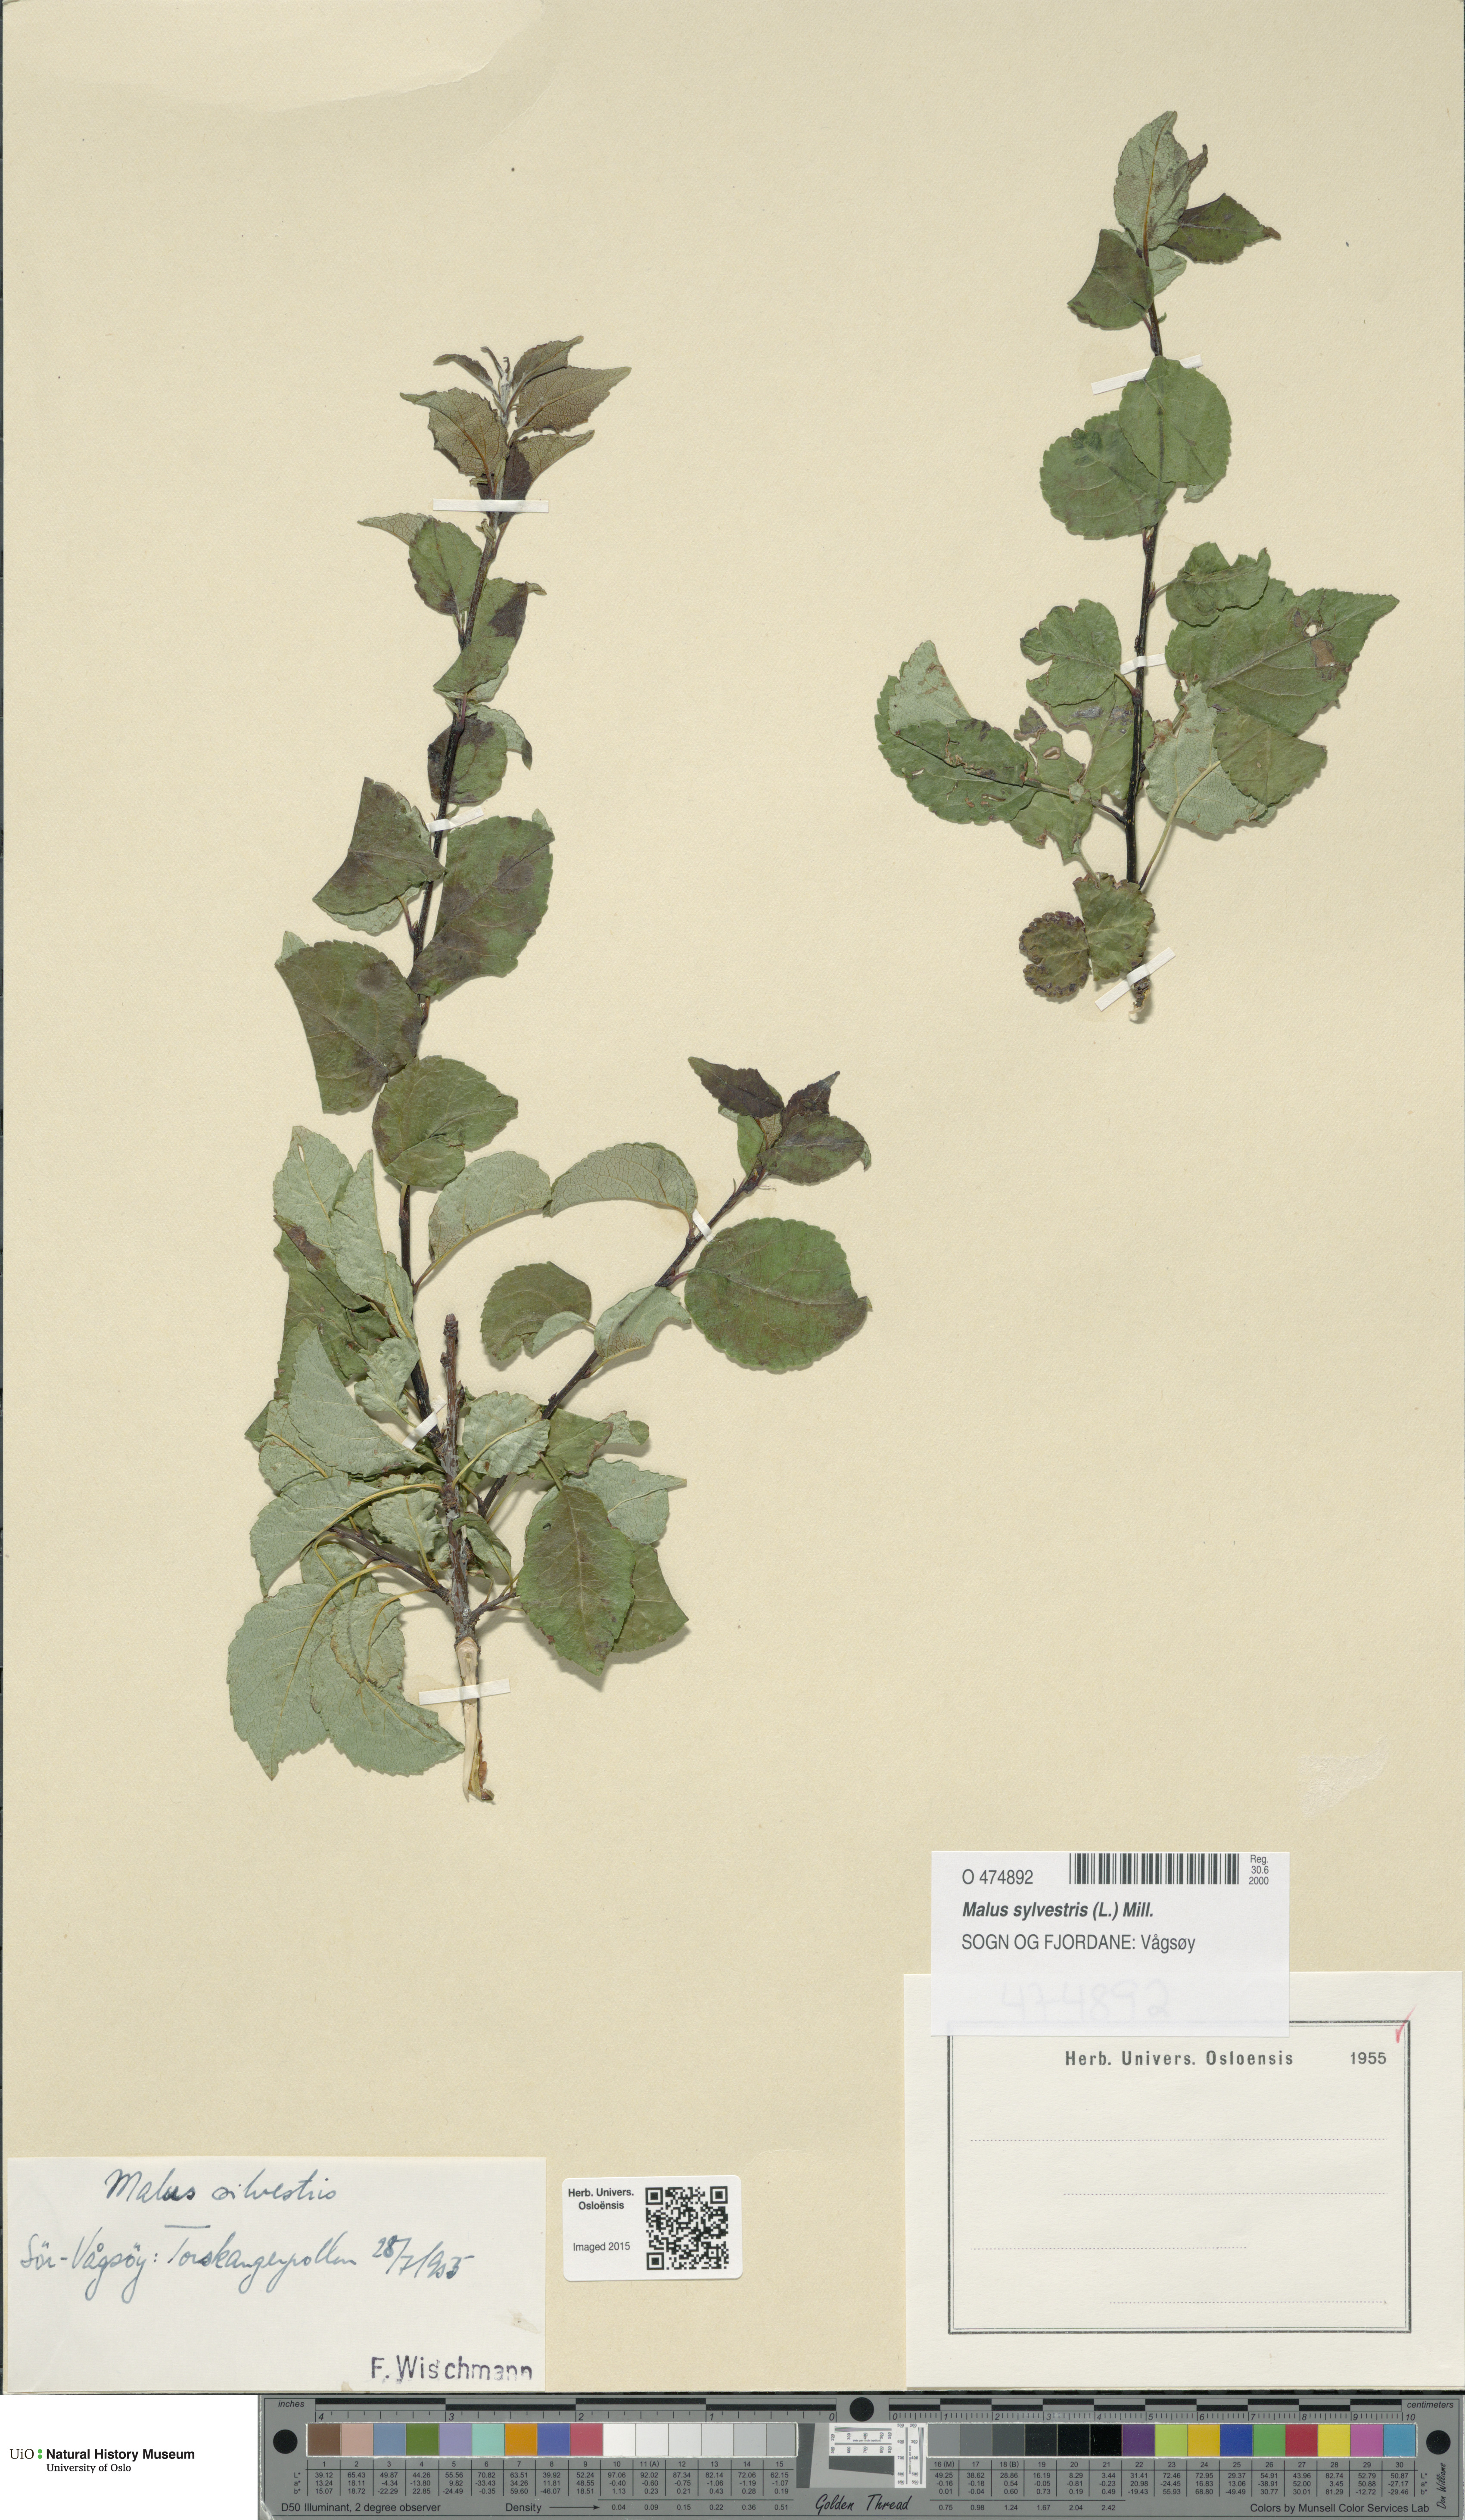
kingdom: Plantae
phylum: Tracheophyta
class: Magnoliopsida
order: Rosales
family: Rosaceae
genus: Malus
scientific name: Malus sylvestris
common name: Crab apple
